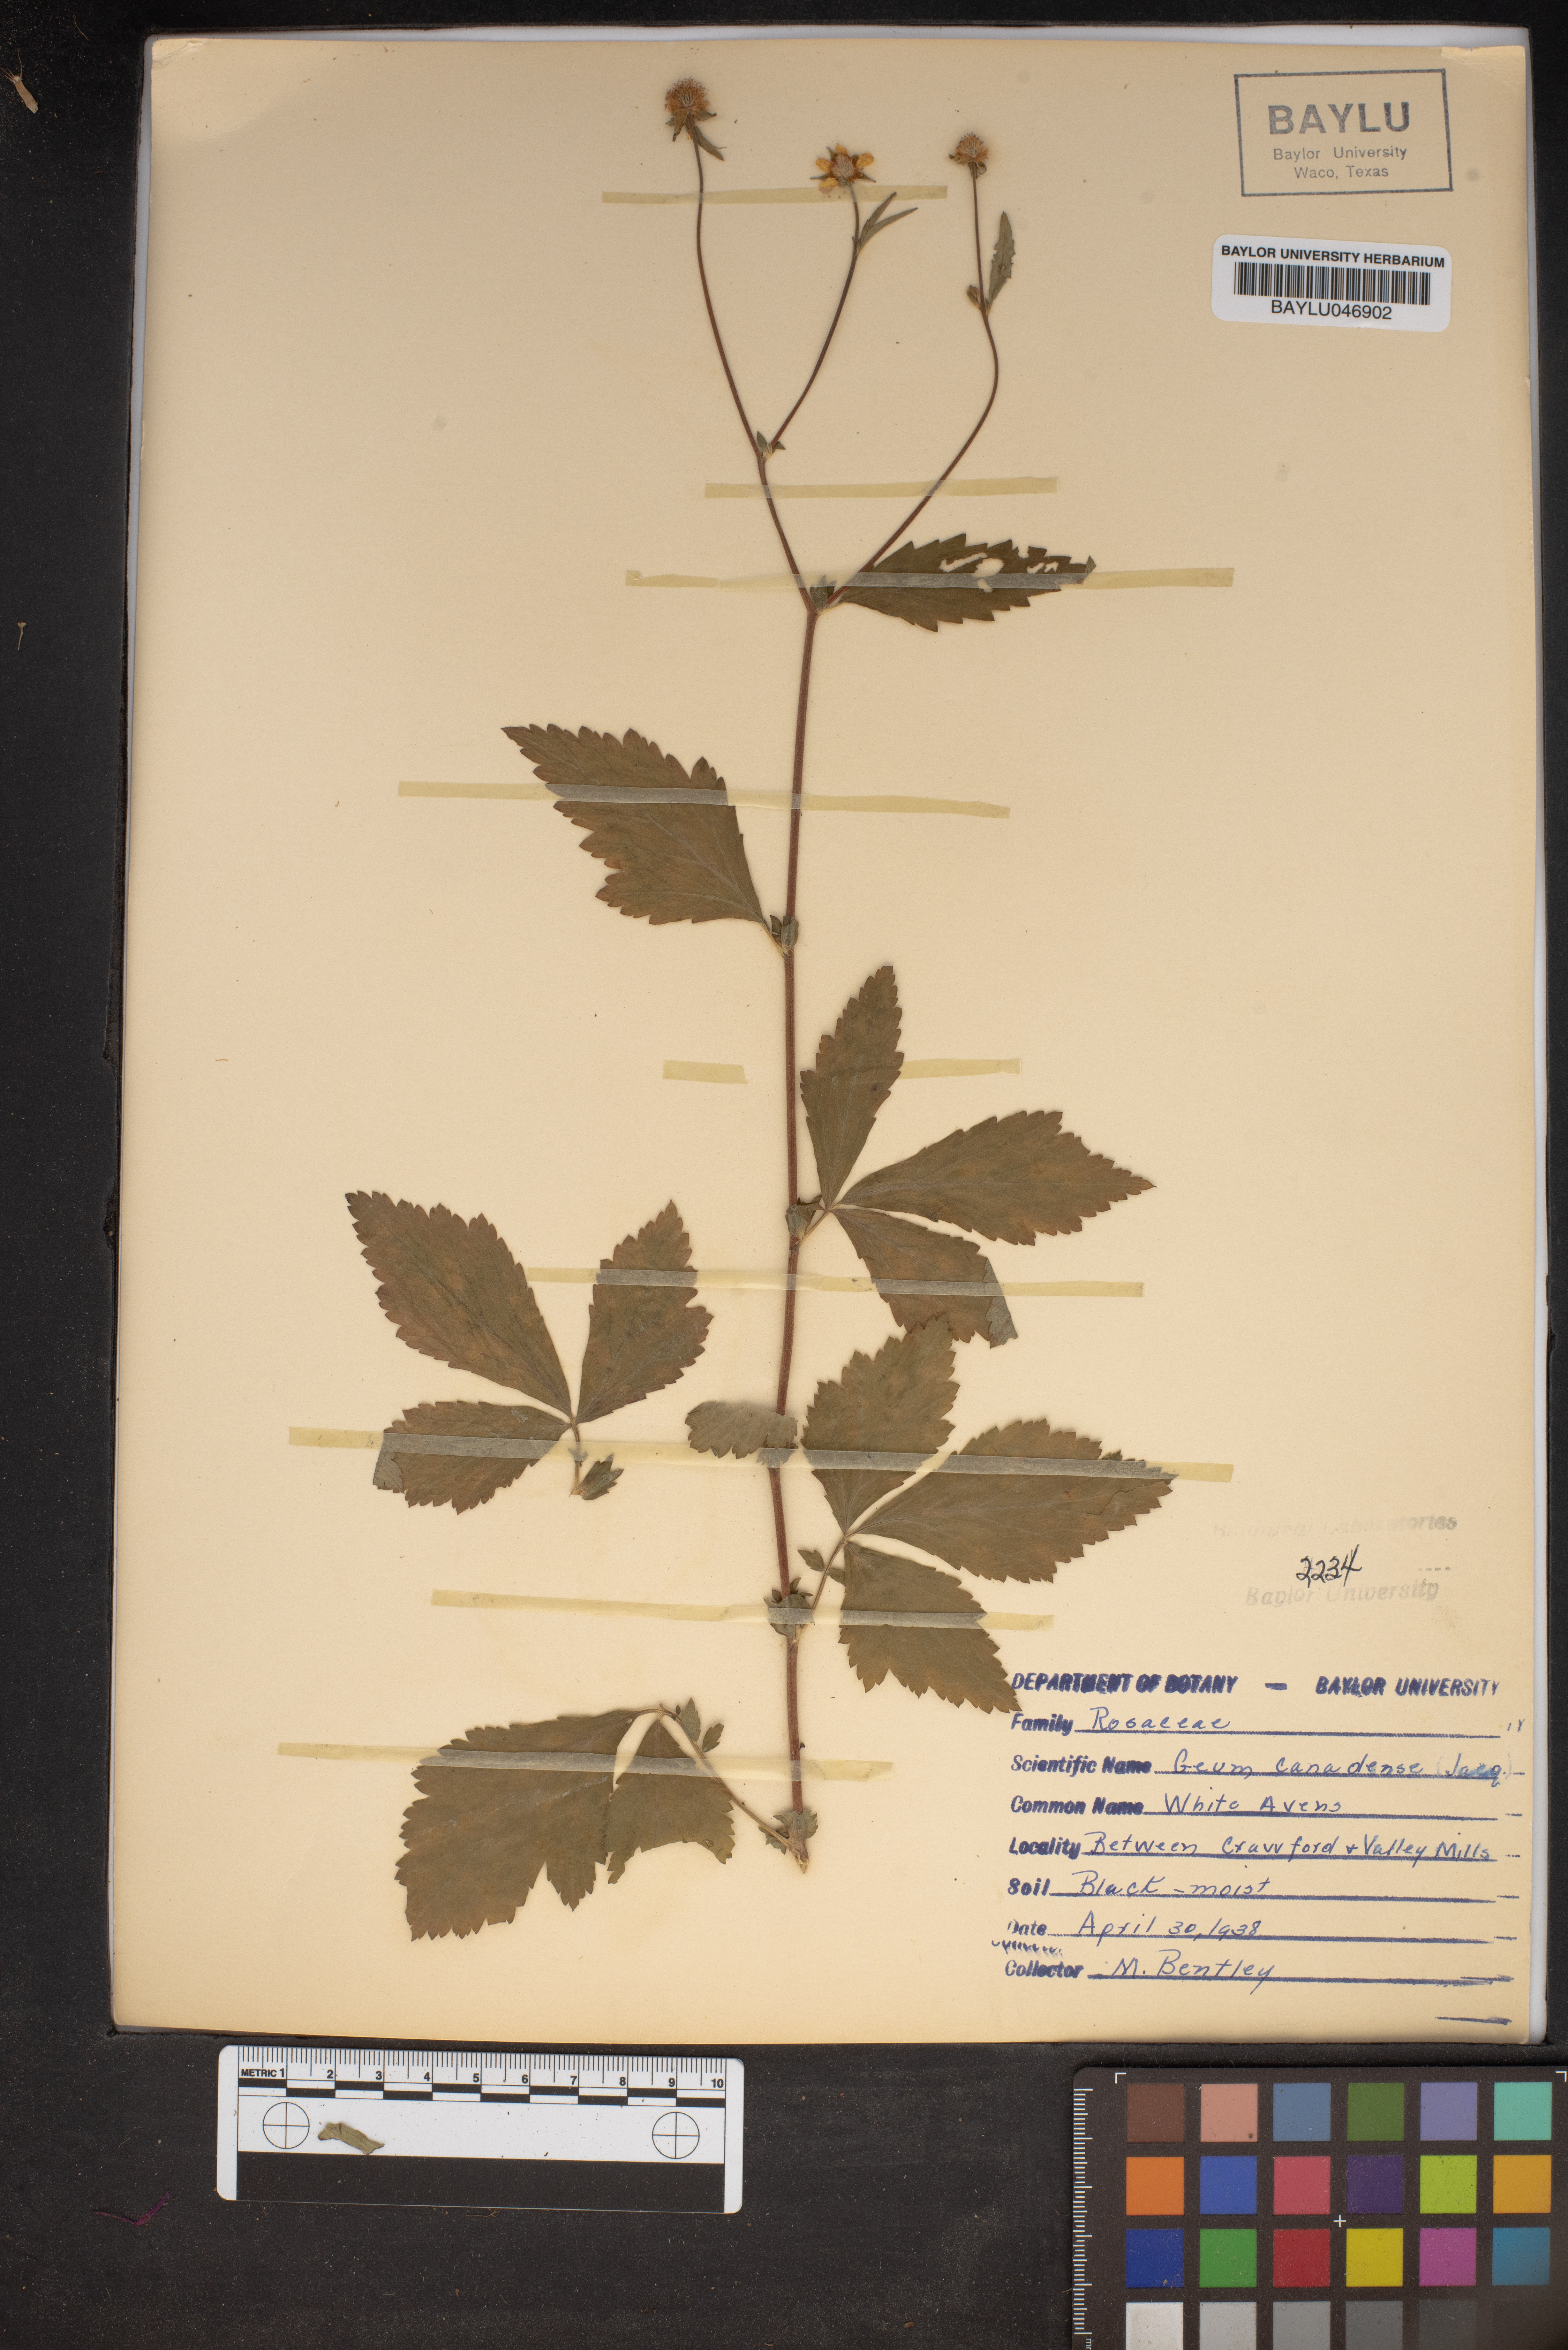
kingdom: Plantae
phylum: Tracheophyta
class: Magnoliopsida
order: Rosales
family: Rosaceae
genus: Geum
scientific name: Geum canadense
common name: White avens
